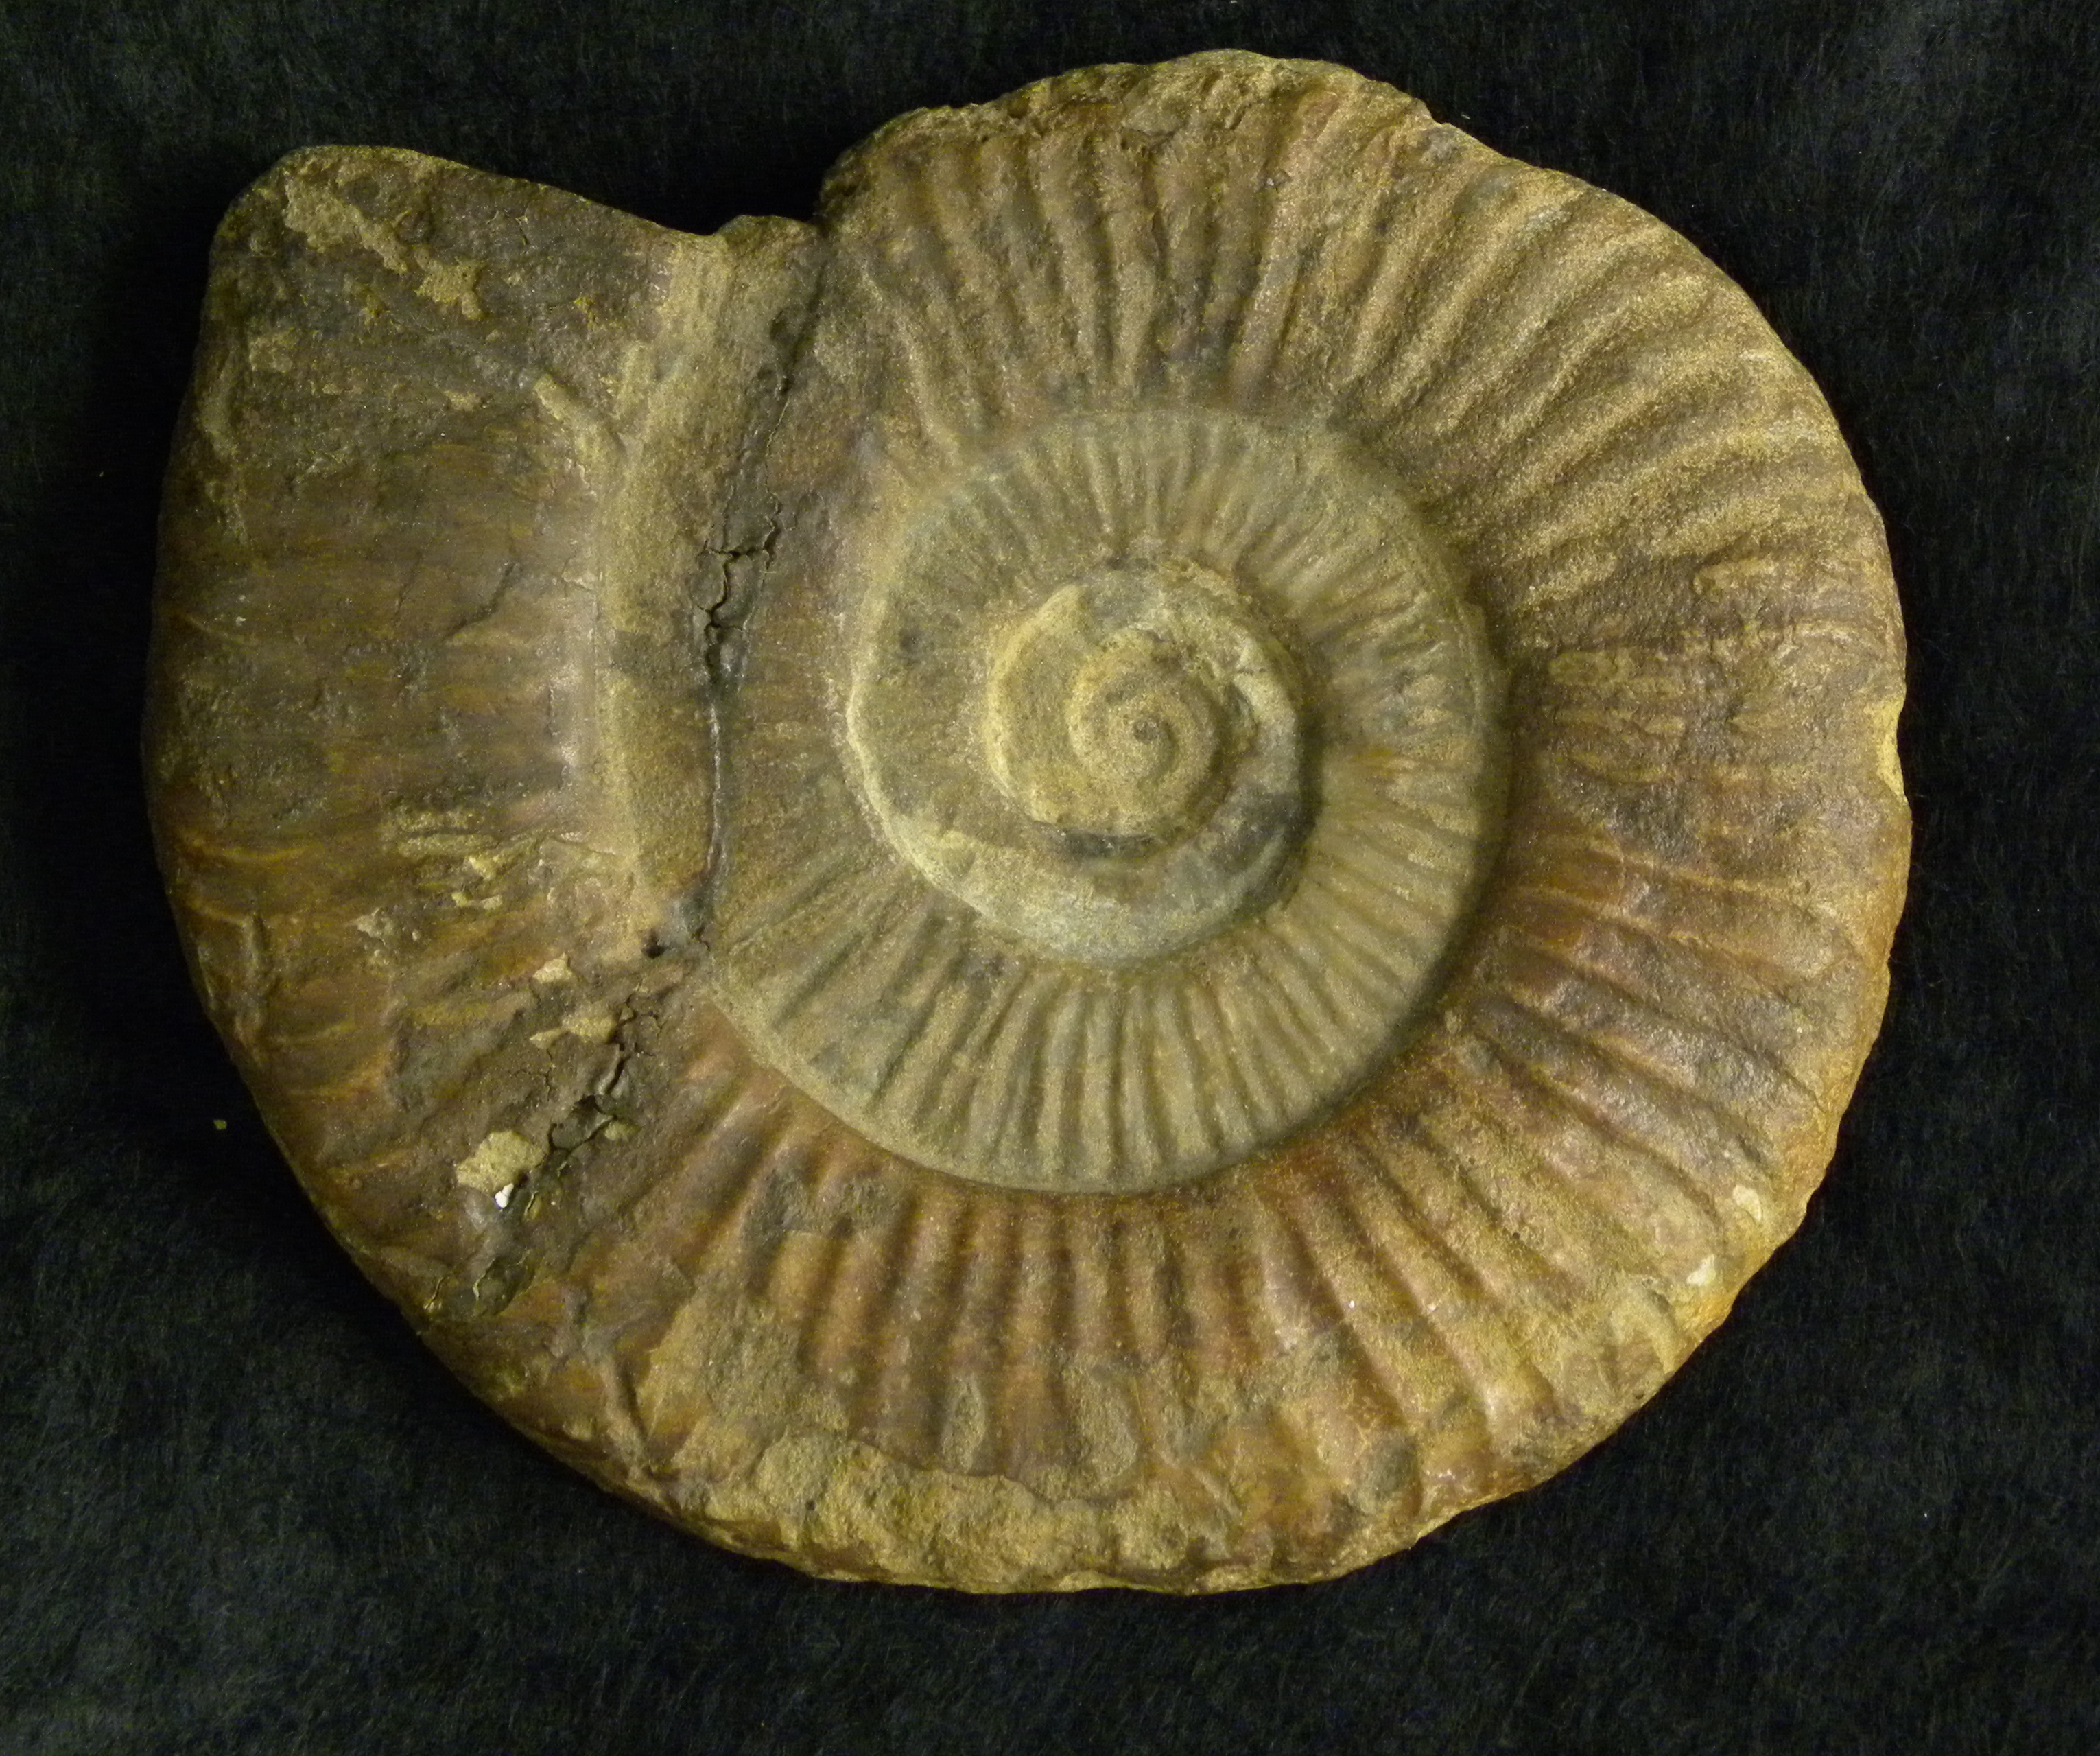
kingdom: Animalia
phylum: Mollusca
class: Cephalopoda
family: Hildoceratidae
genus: Dumortieria
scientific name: Dumortieria
